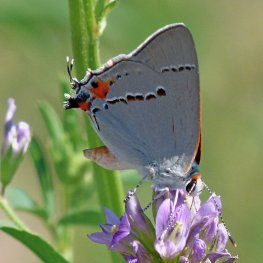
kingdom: Animalia
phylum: Arthropoda
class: Insecta
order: Lepidoptera
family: Lycaenidae
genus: Strymon
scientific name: Strymon melinus
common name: Gray Hairstreak
